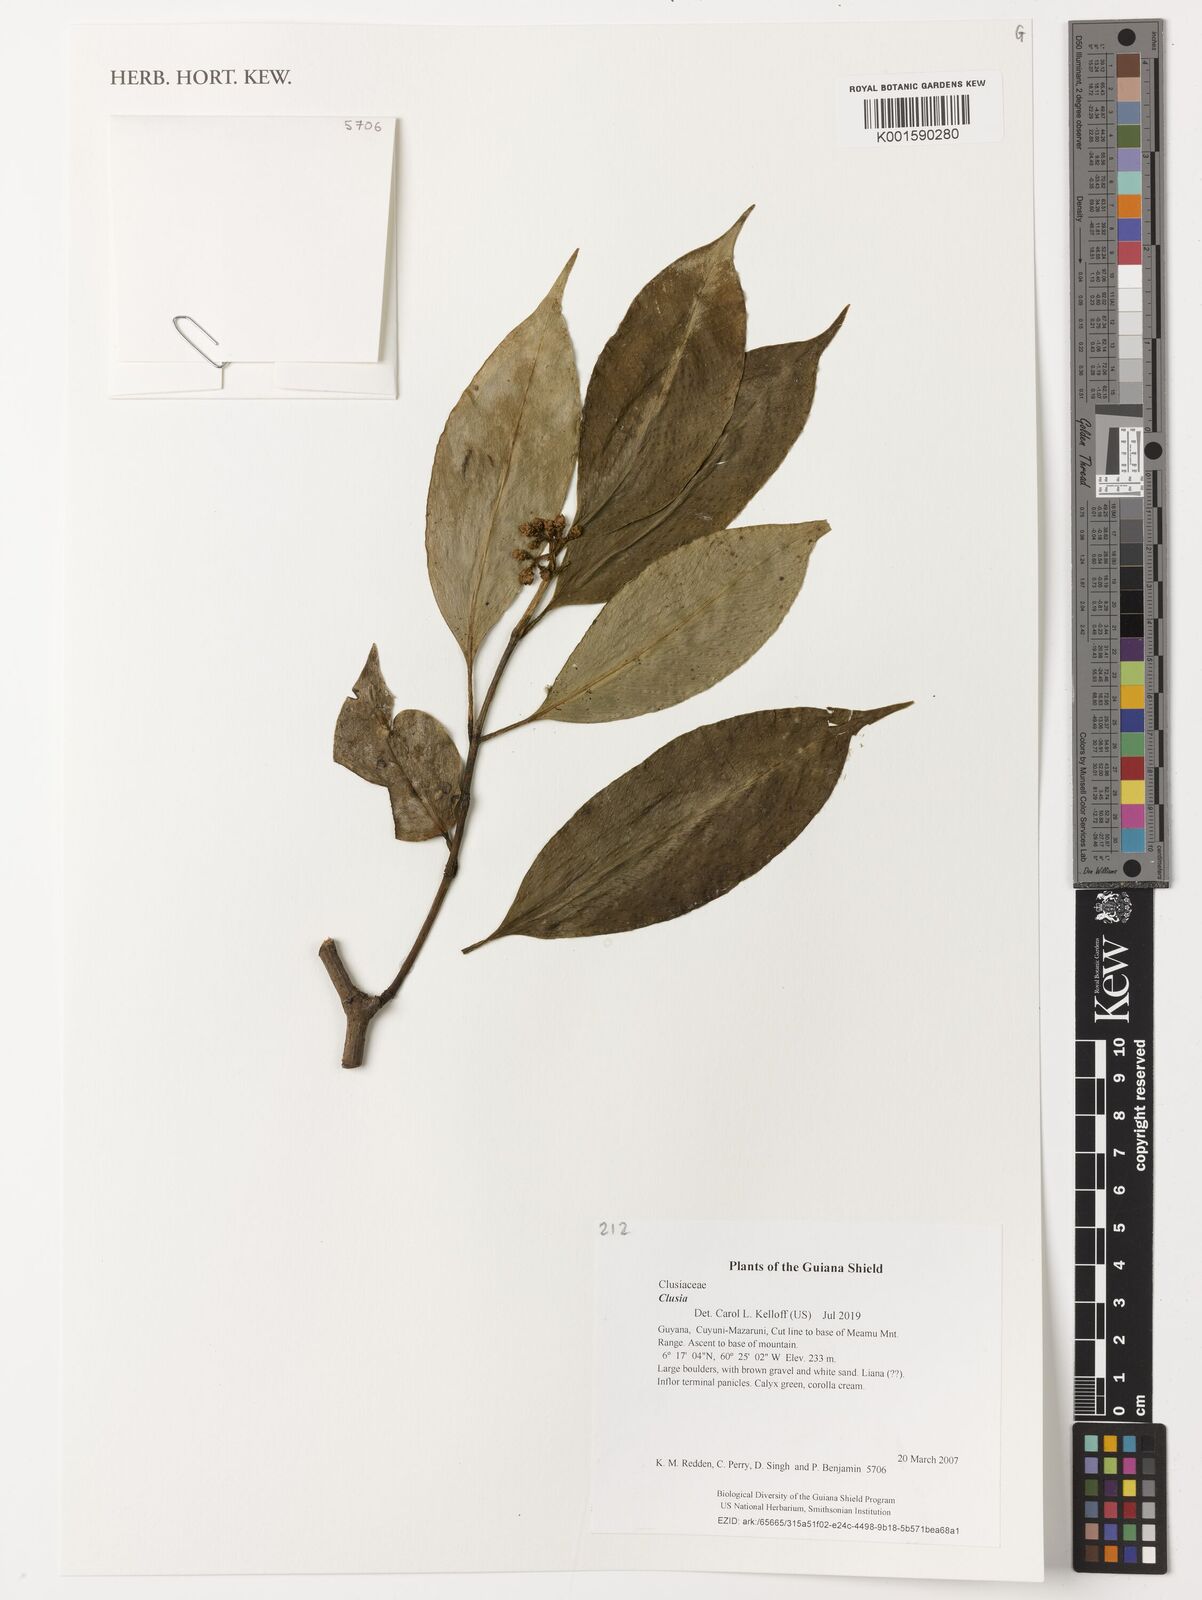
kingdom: Plantae
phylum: Tracheophyta
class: Magnoliopsida
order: Malpighiales
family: Clusiaceae
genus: Clusia
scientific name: Clusia
